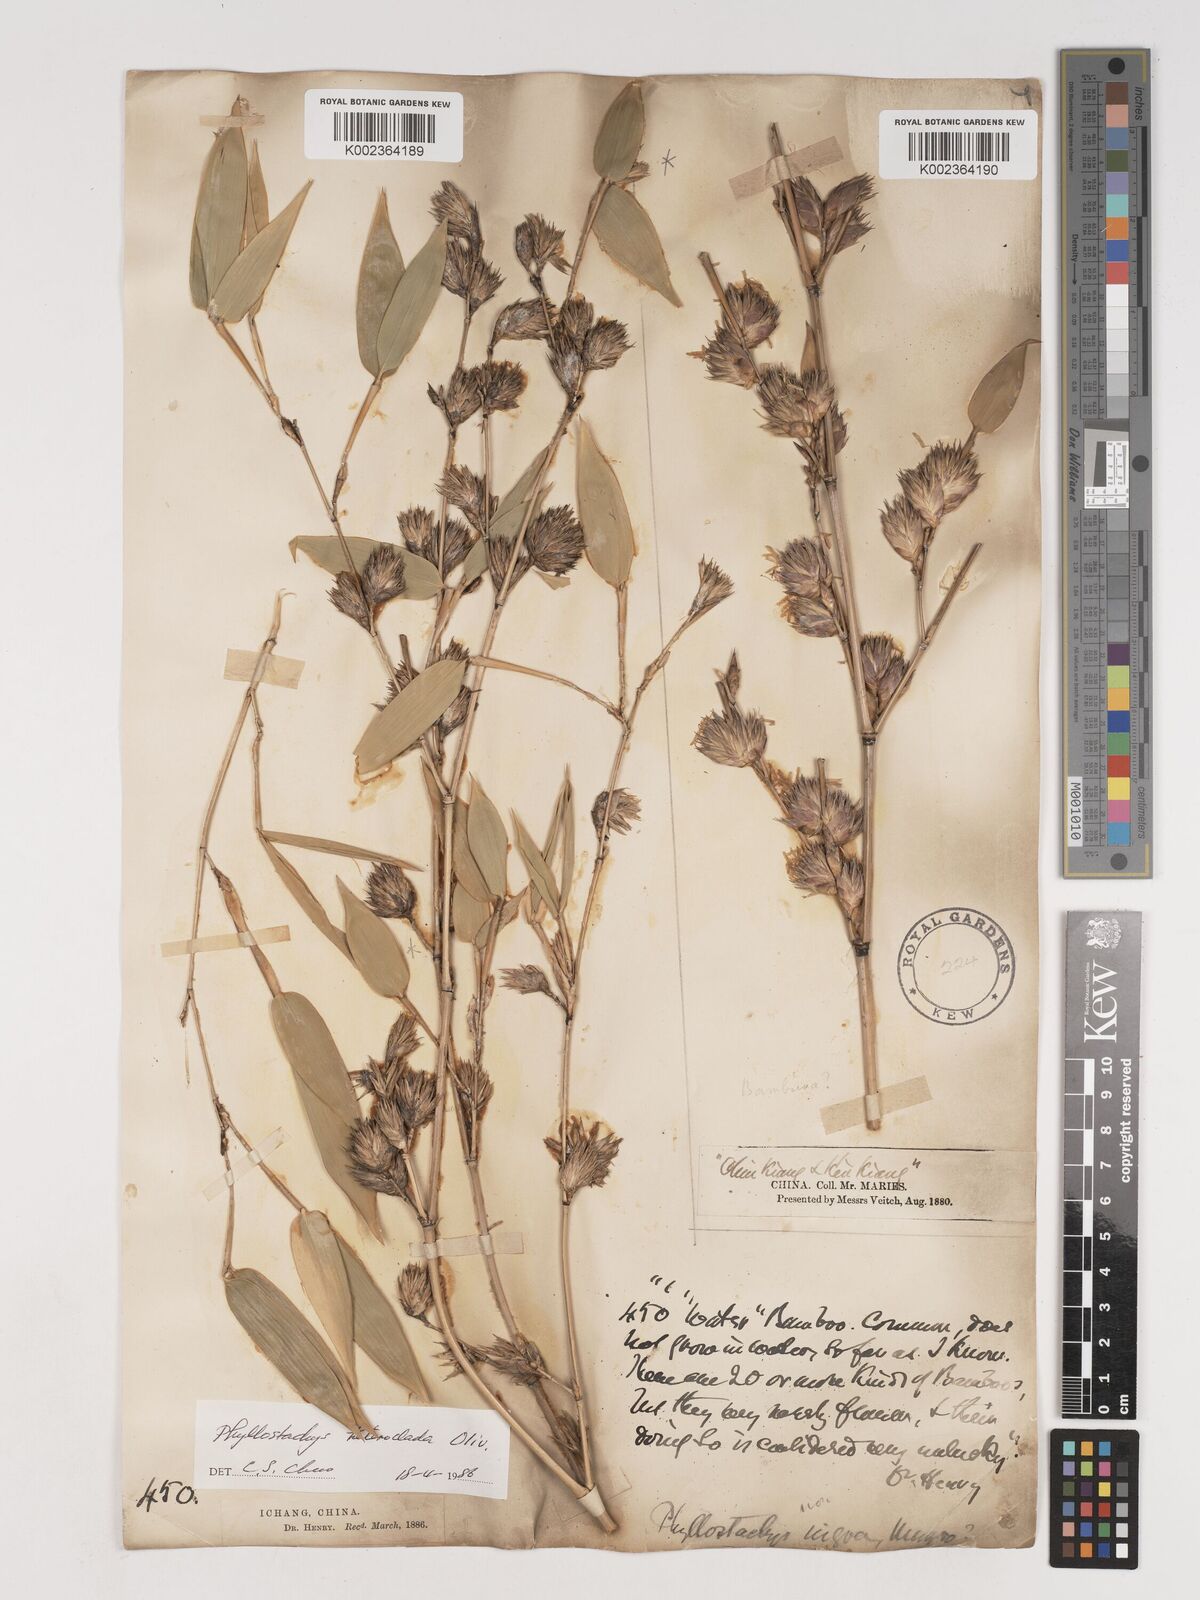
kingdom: Plantae
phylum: Tracheophyta
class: Liliopsida
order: Poales
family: Poaceae
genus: Phyllostachys
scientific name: Phyllostachys heteroclada
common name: Fishscale bamboo
